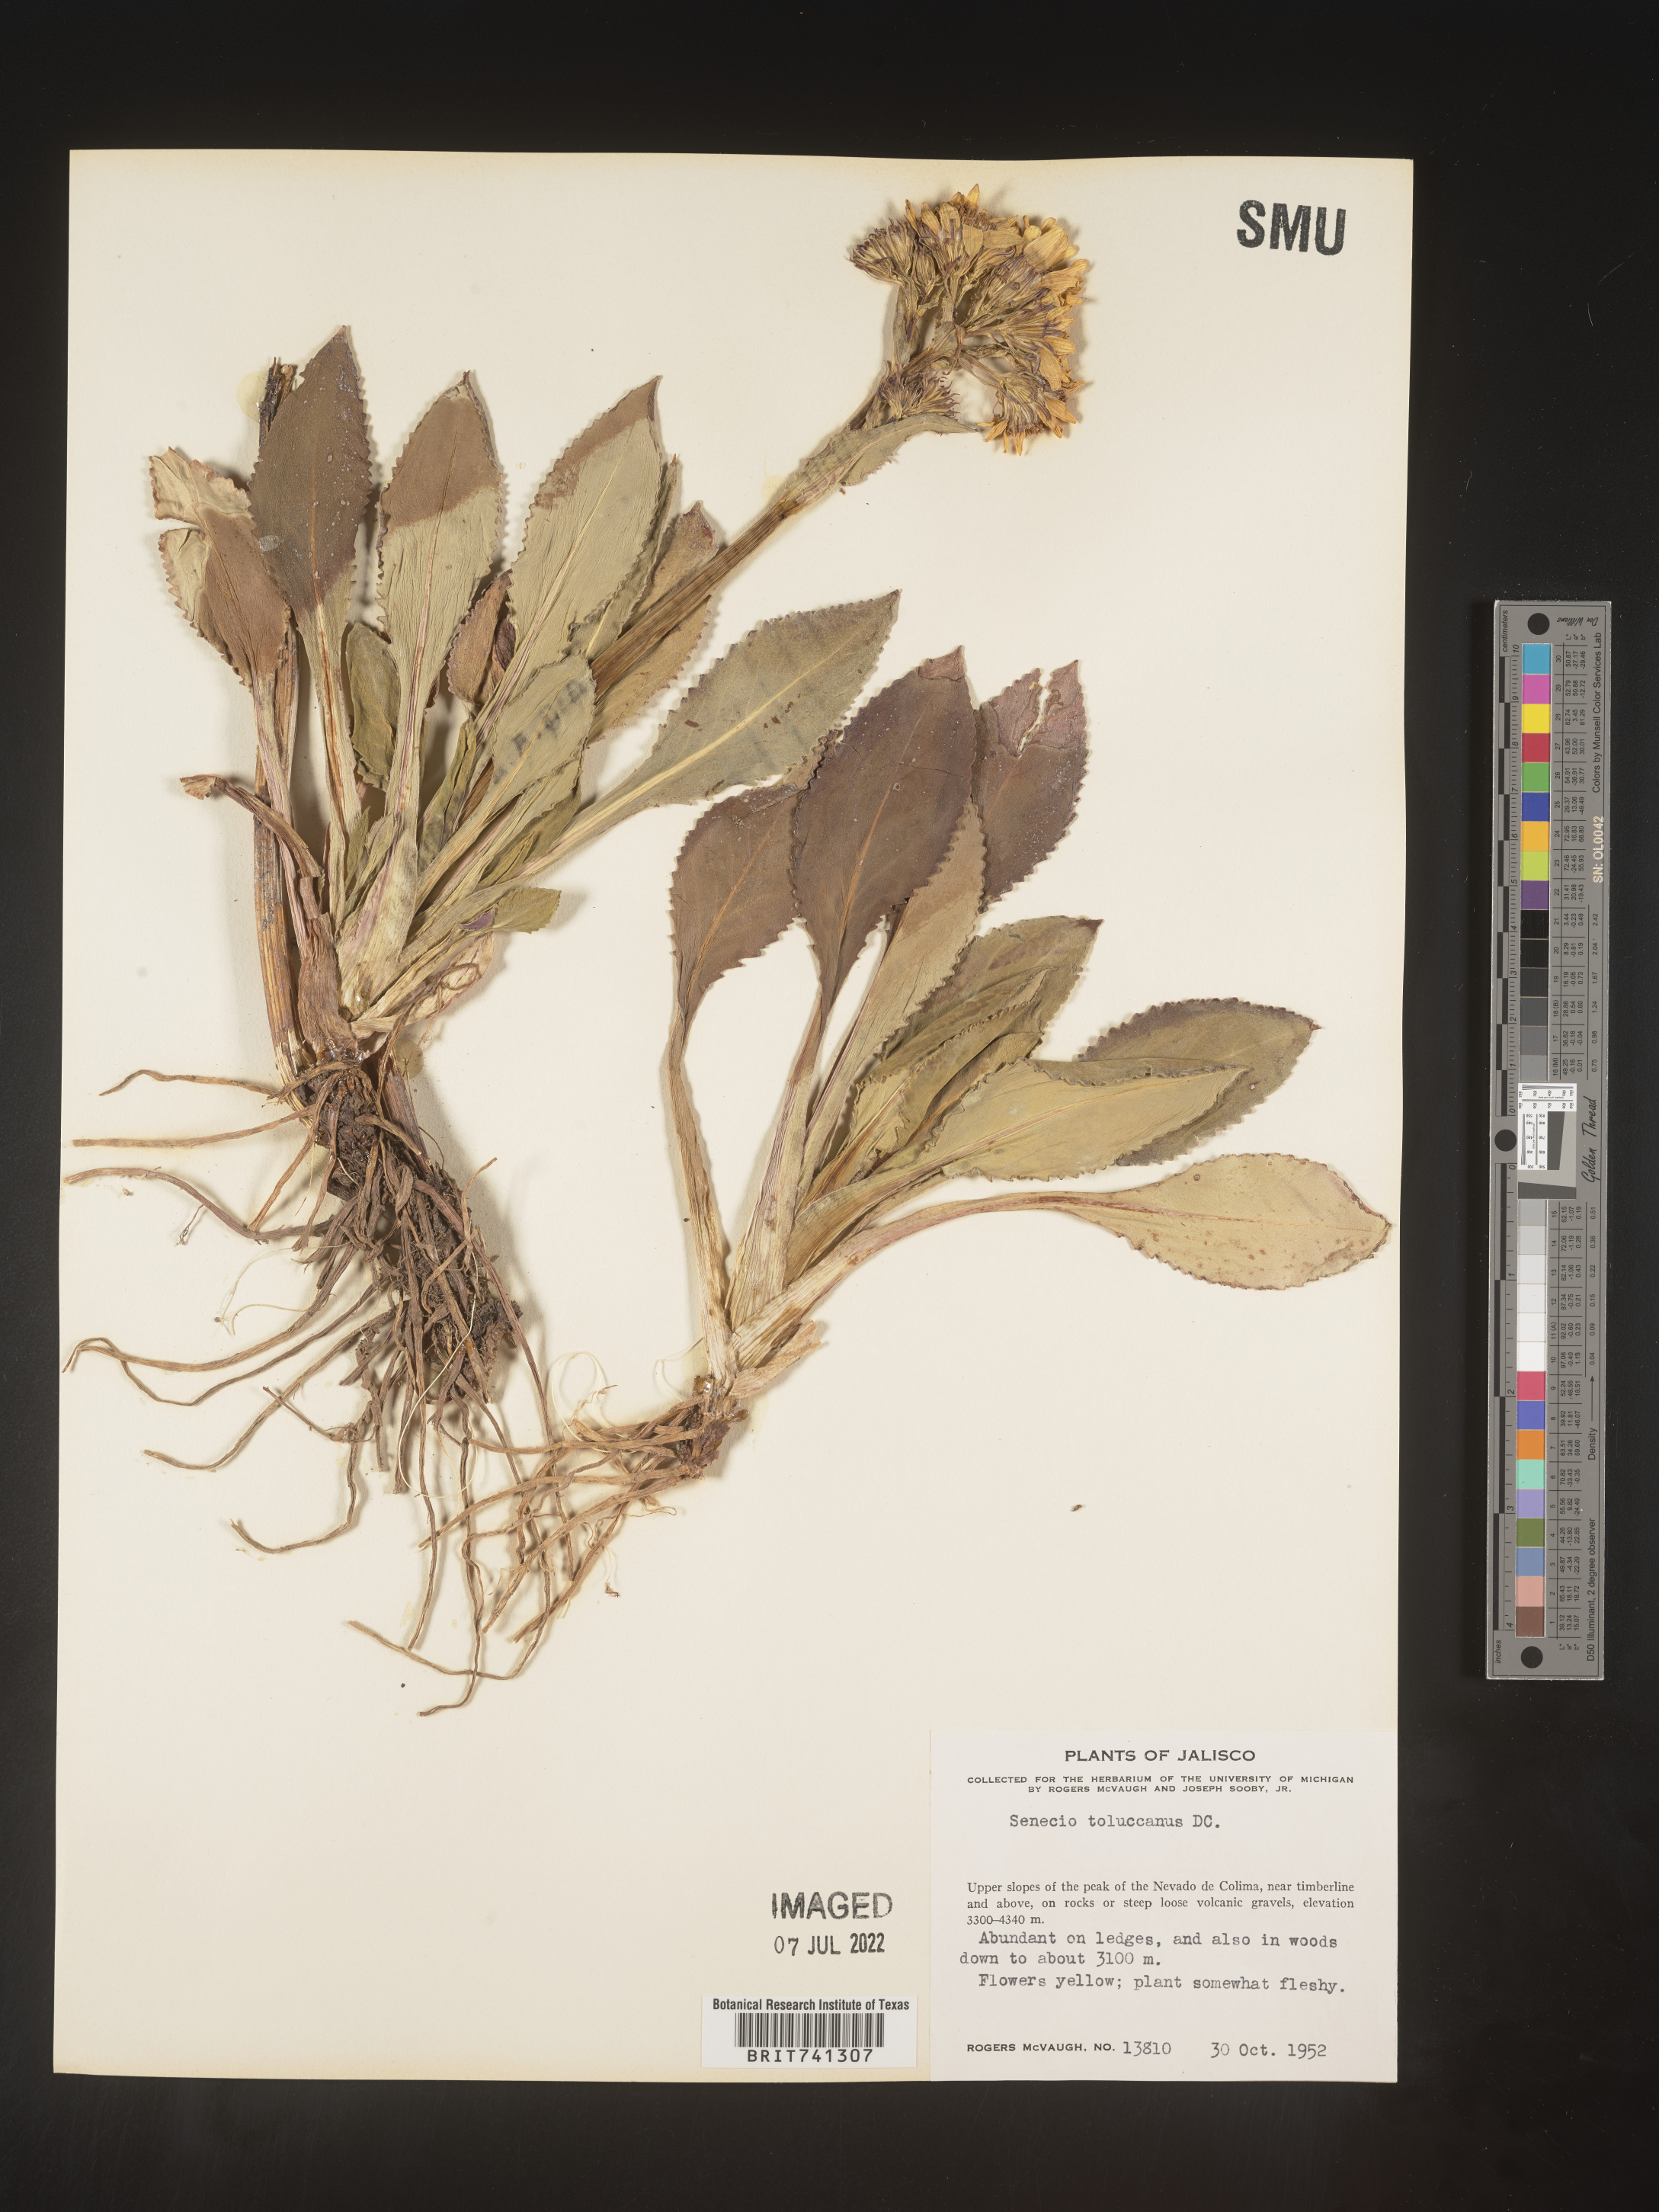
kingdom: Plantae
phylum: Tracheophyta
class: Magnoliopsida
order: Asterales
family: Asteraceae
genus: Packera
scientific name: Packera toluccana
